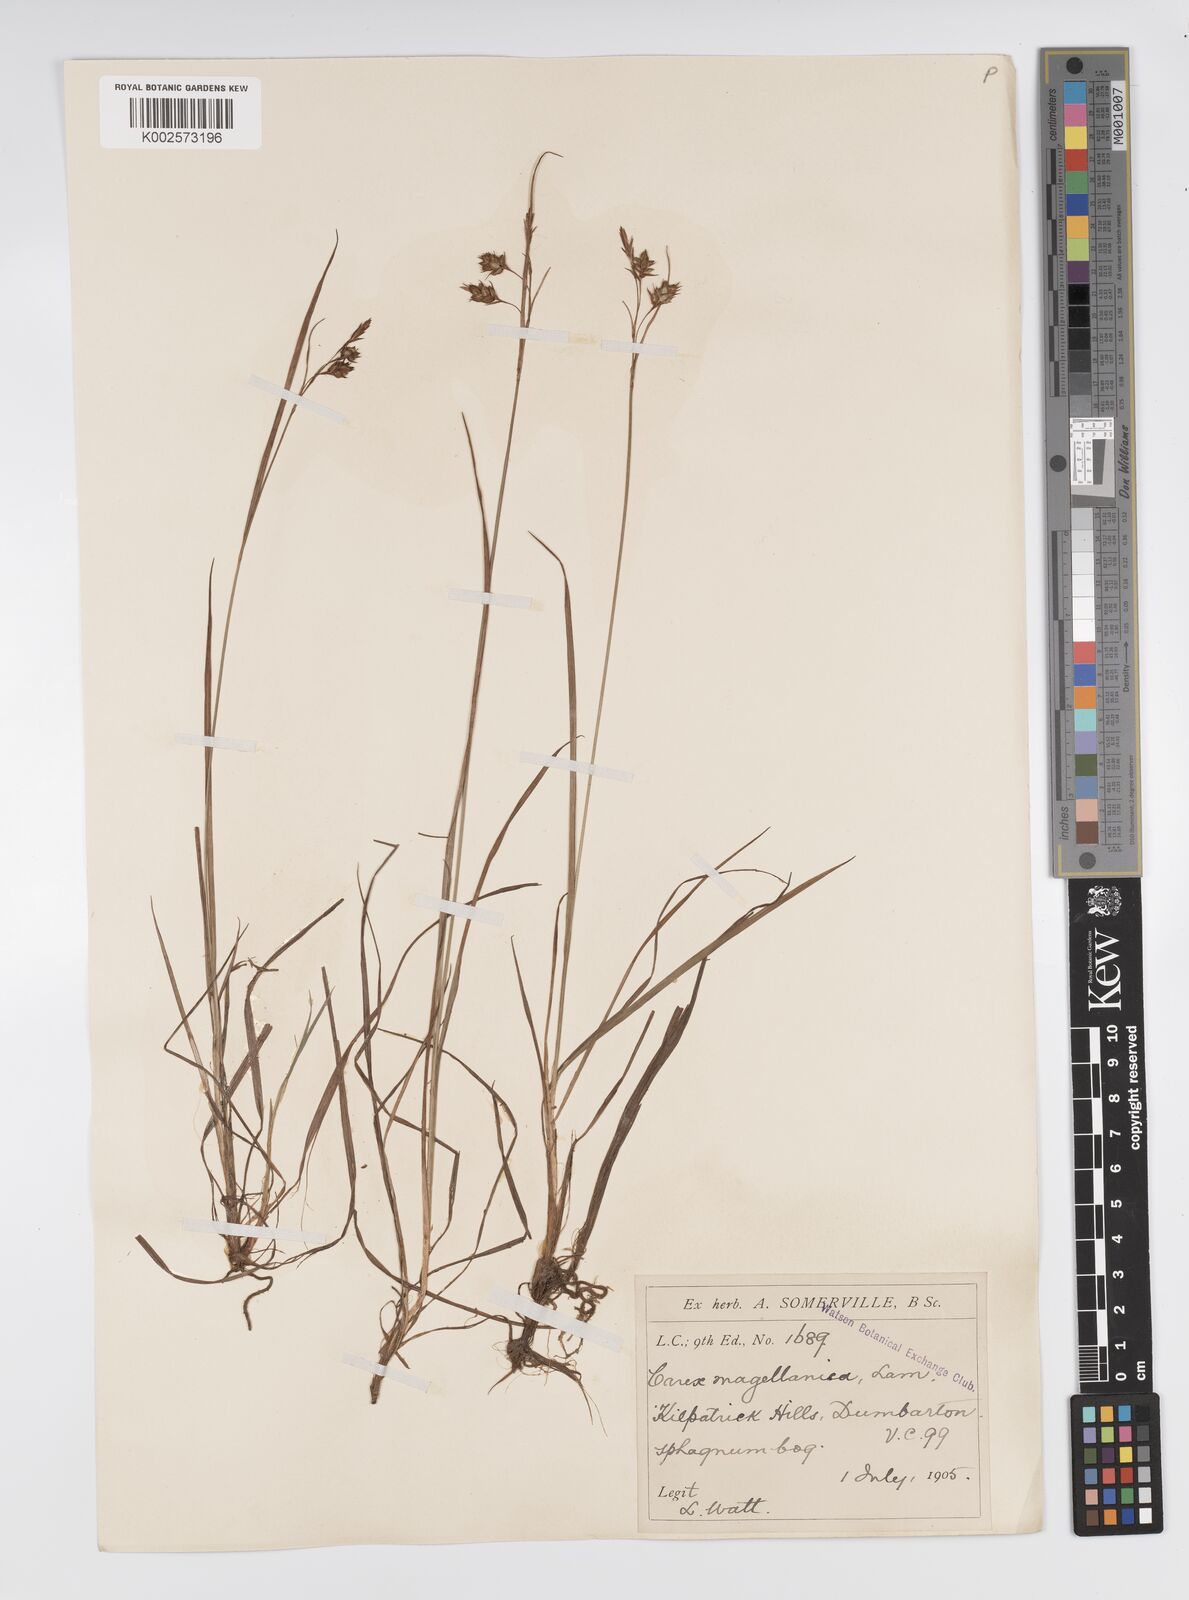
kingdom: Plantae
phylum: Tracheophyta
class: Liliopsida
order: Poales
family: Cyperaceae
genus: Carex
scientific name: Carex magellanica
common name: Bog sedge
